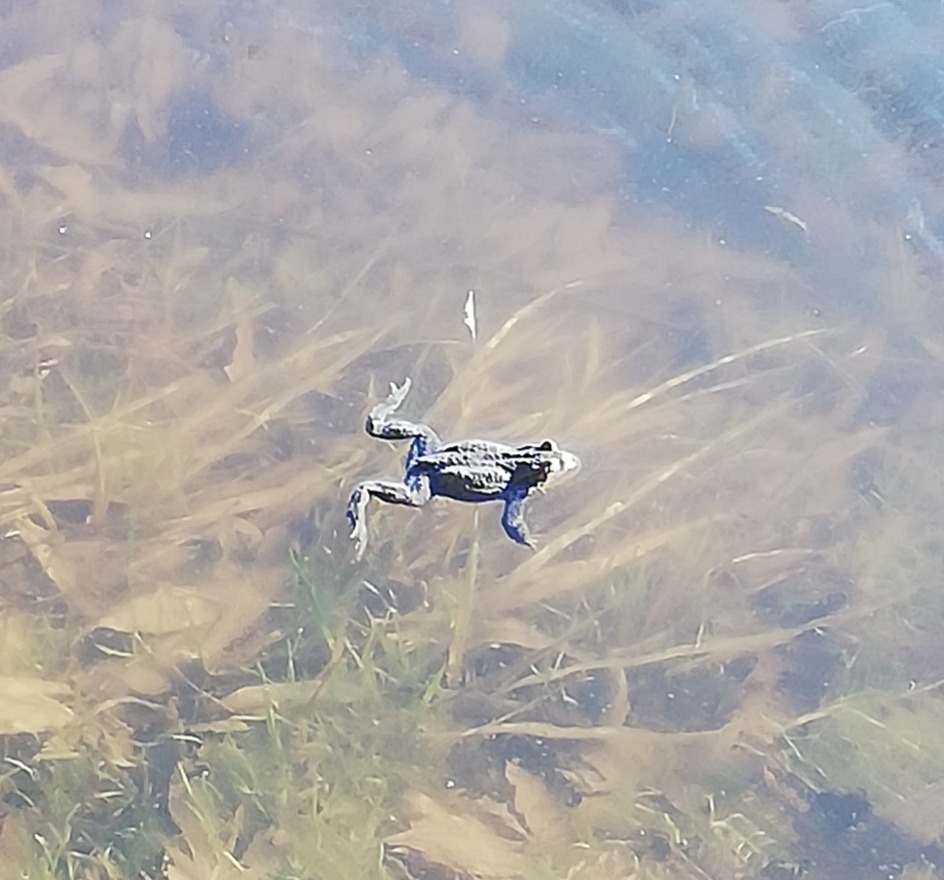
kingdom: Animalia
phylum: Chordata
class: Amphibia
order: Anura
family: Bufonidae
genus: Bufo
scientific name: Bufo bufo
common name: Skrubtudse
